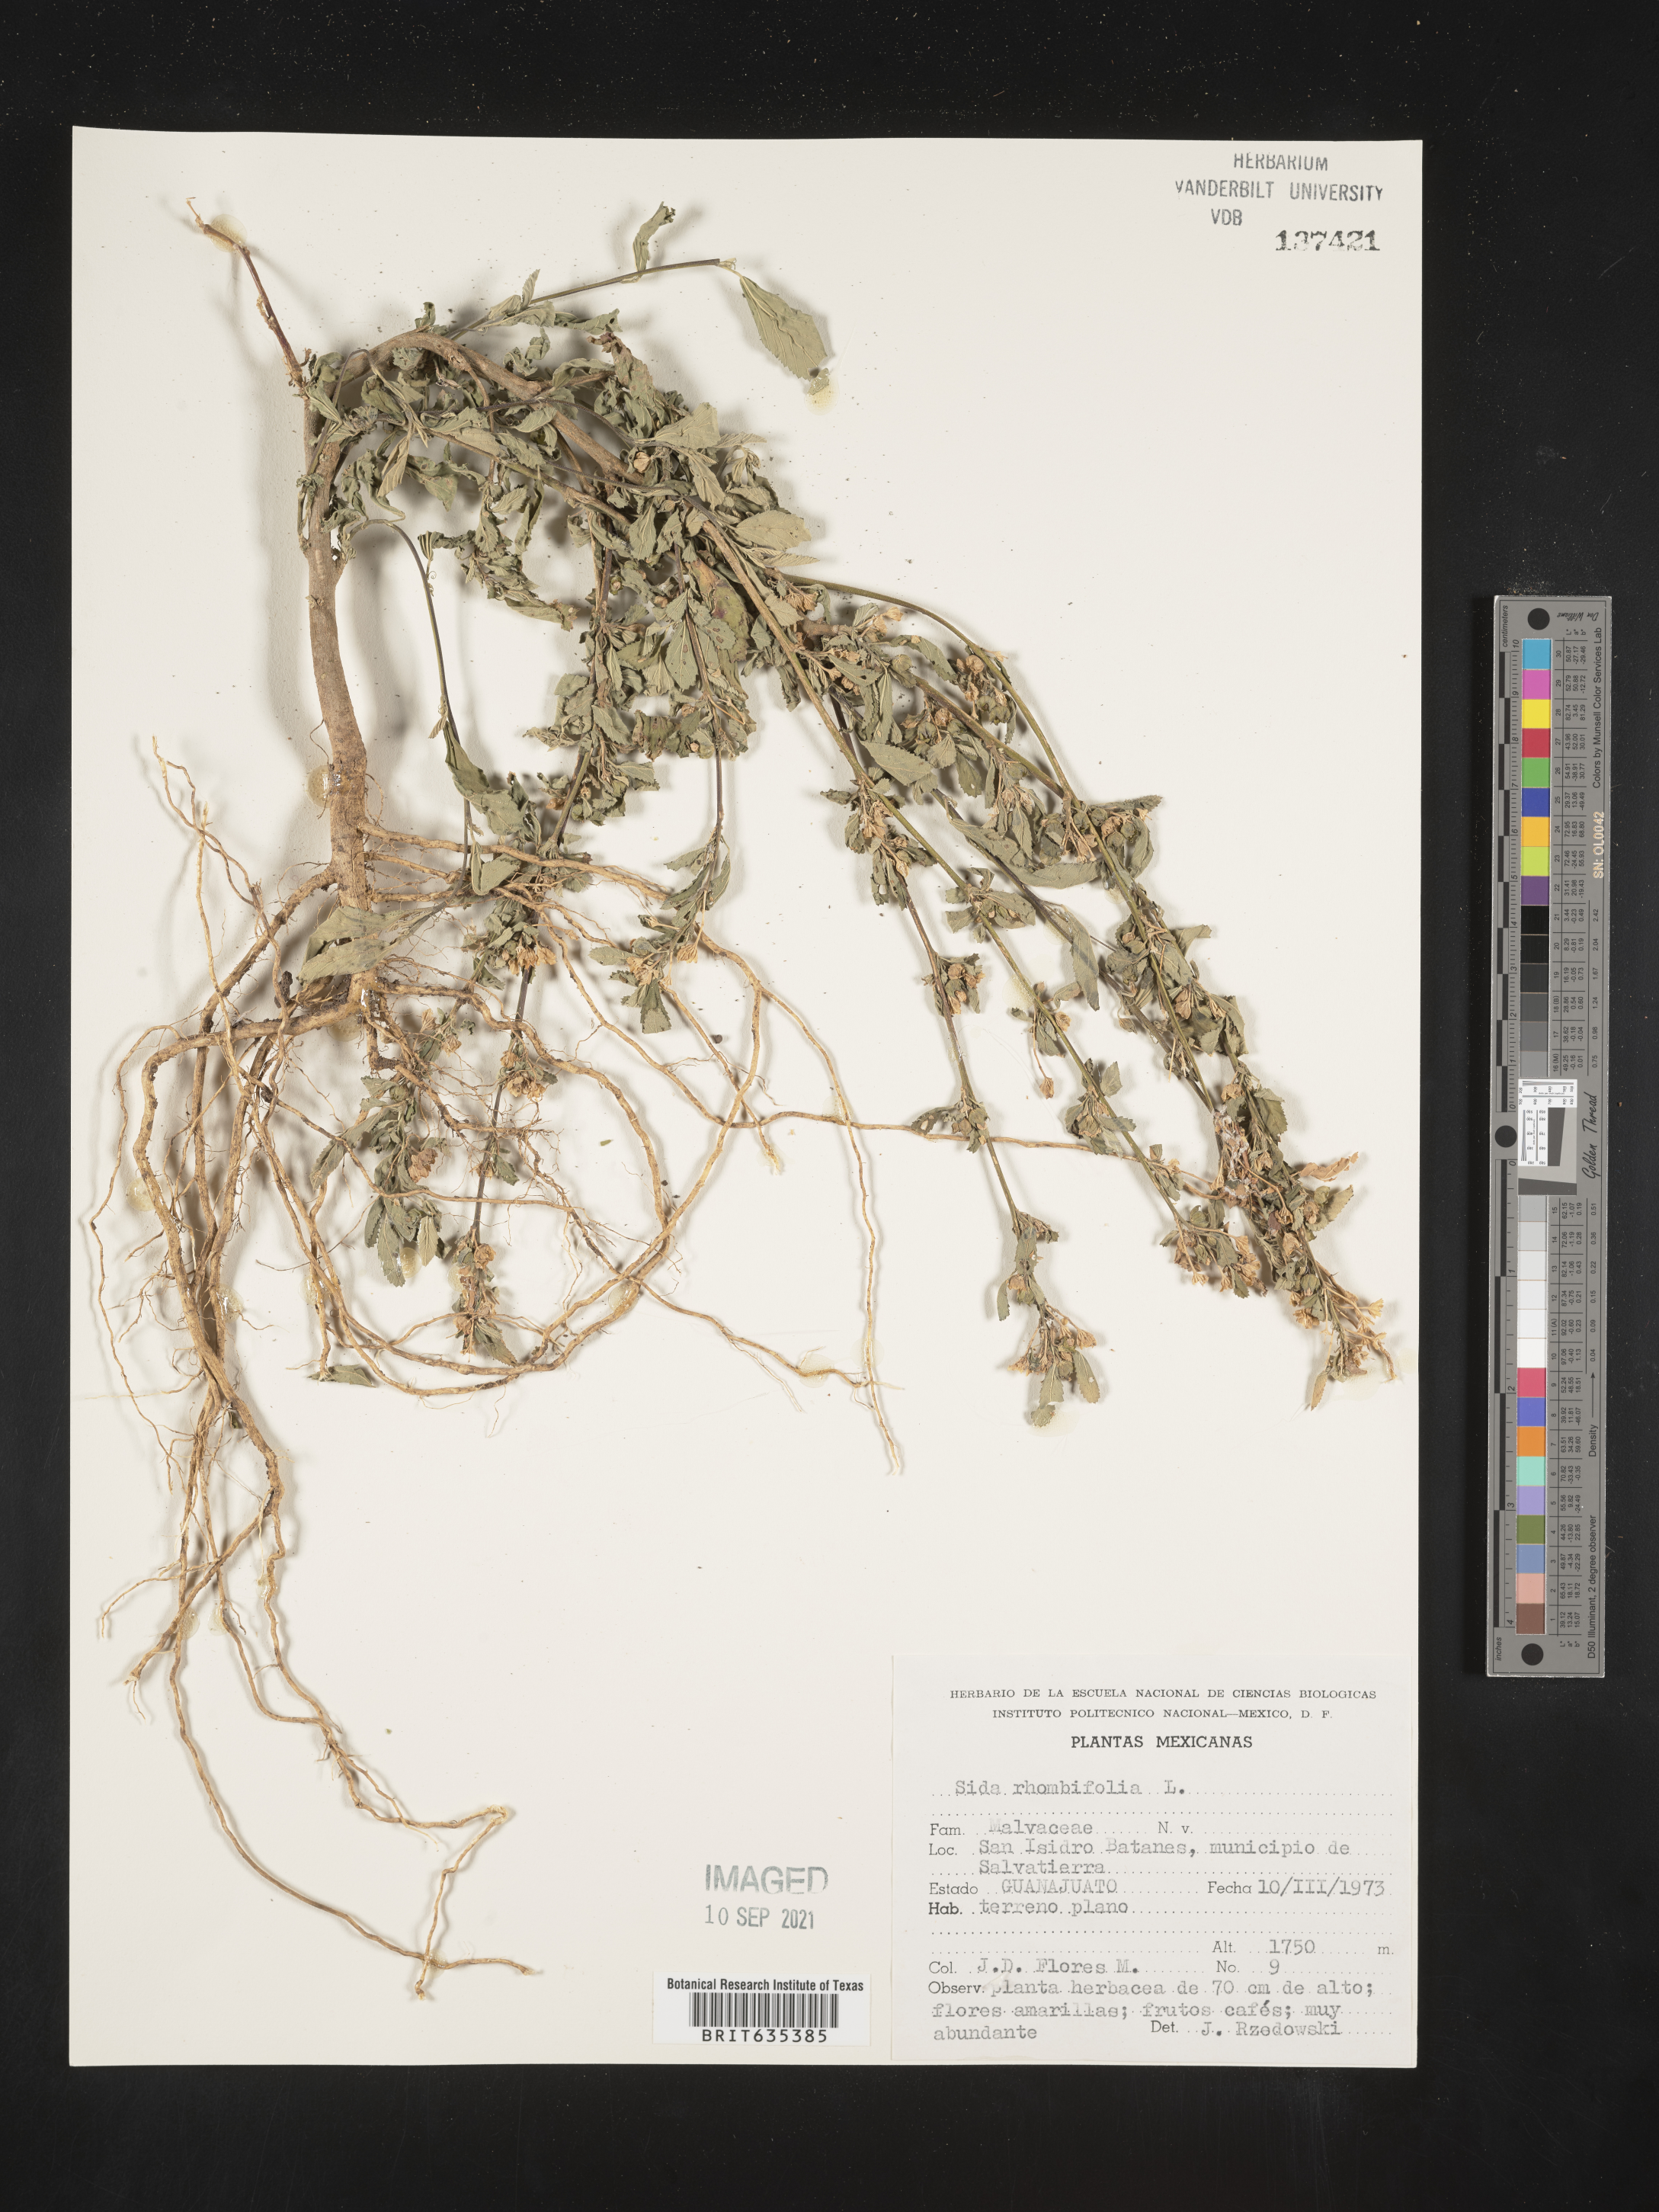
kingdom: Plantae
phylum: Tracheophyta
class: Magnoliopsida
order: Malvales
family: Malvaceae
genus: Sida
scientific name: Sida
